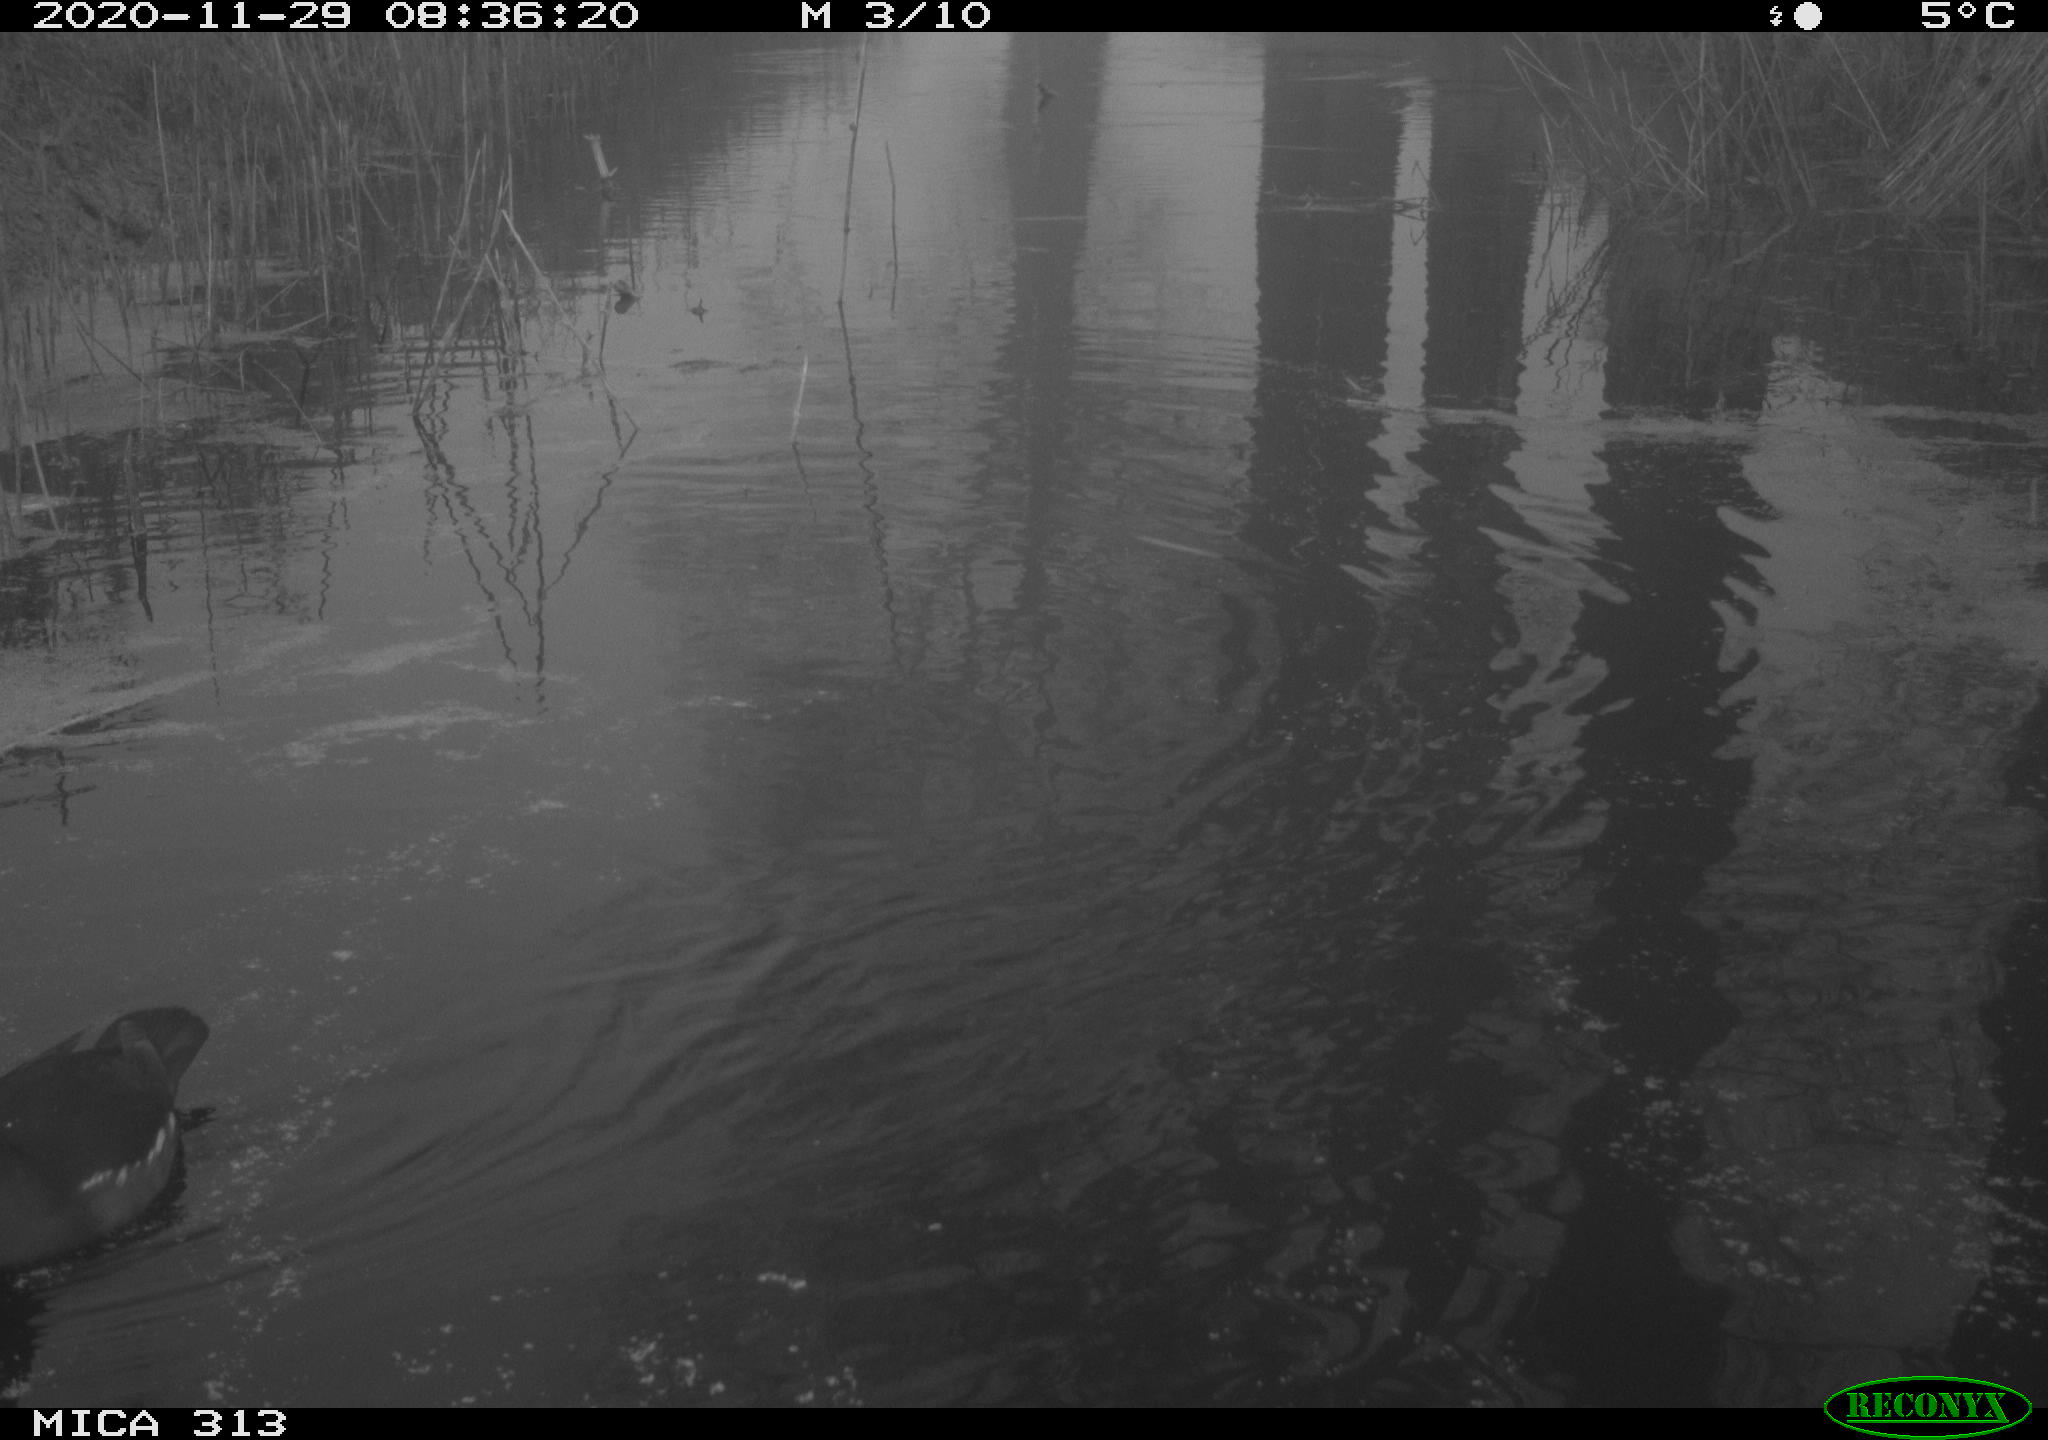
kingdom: Animalia
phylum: Chordata
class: Aves
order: Gruiformes
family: Rallidae
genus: Gallinula
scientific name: Gallinula chloropus
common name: Common moorhen
